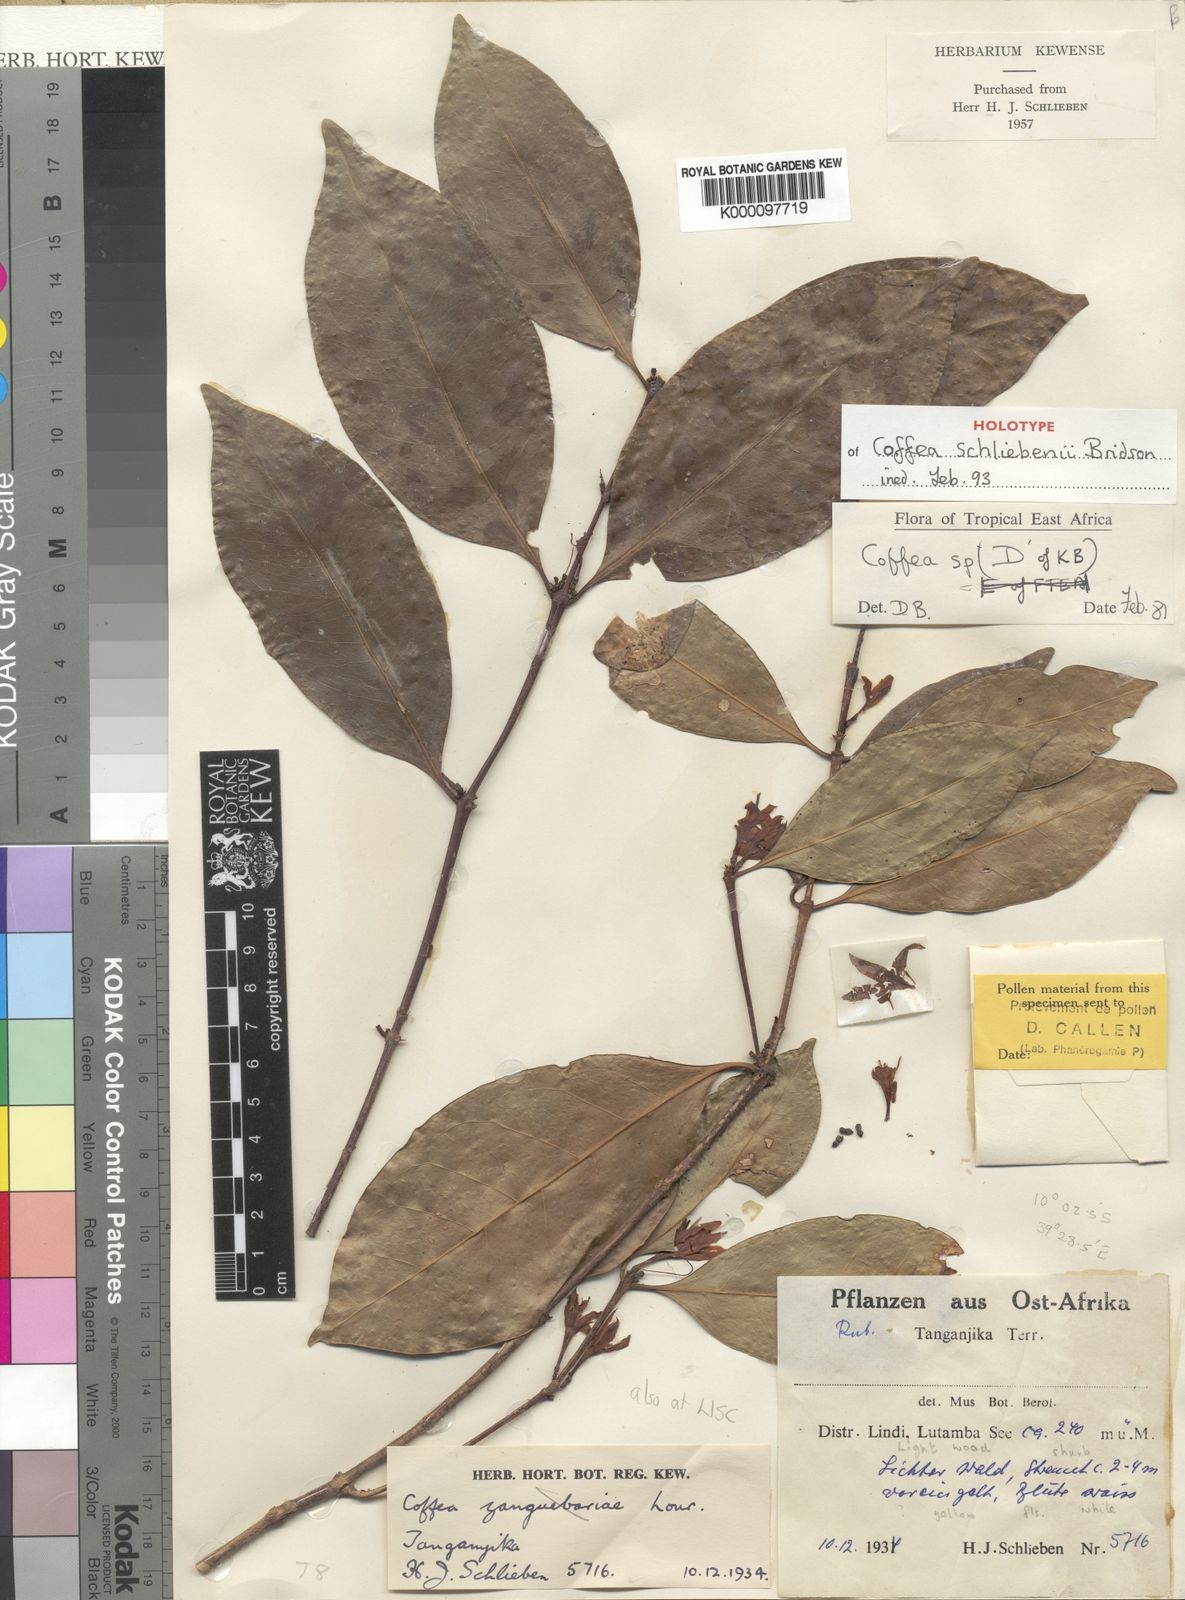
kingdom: Plantae
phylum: Tracheophyta
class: Magnoliopsida
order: Gentianales
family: Rubiaceae
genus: Coffea
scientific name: Coffea schliebenii
